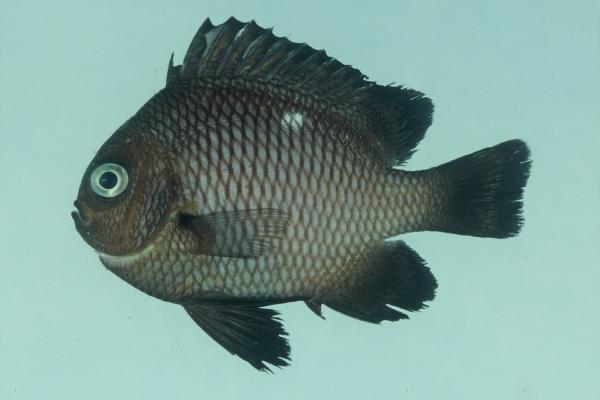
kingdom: Animalia
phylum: Chordata
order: Perciformes
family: Pomacentridae
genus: Dascyllus
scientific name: Dascyllus trimaculatus
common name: Threespot dascyllus
